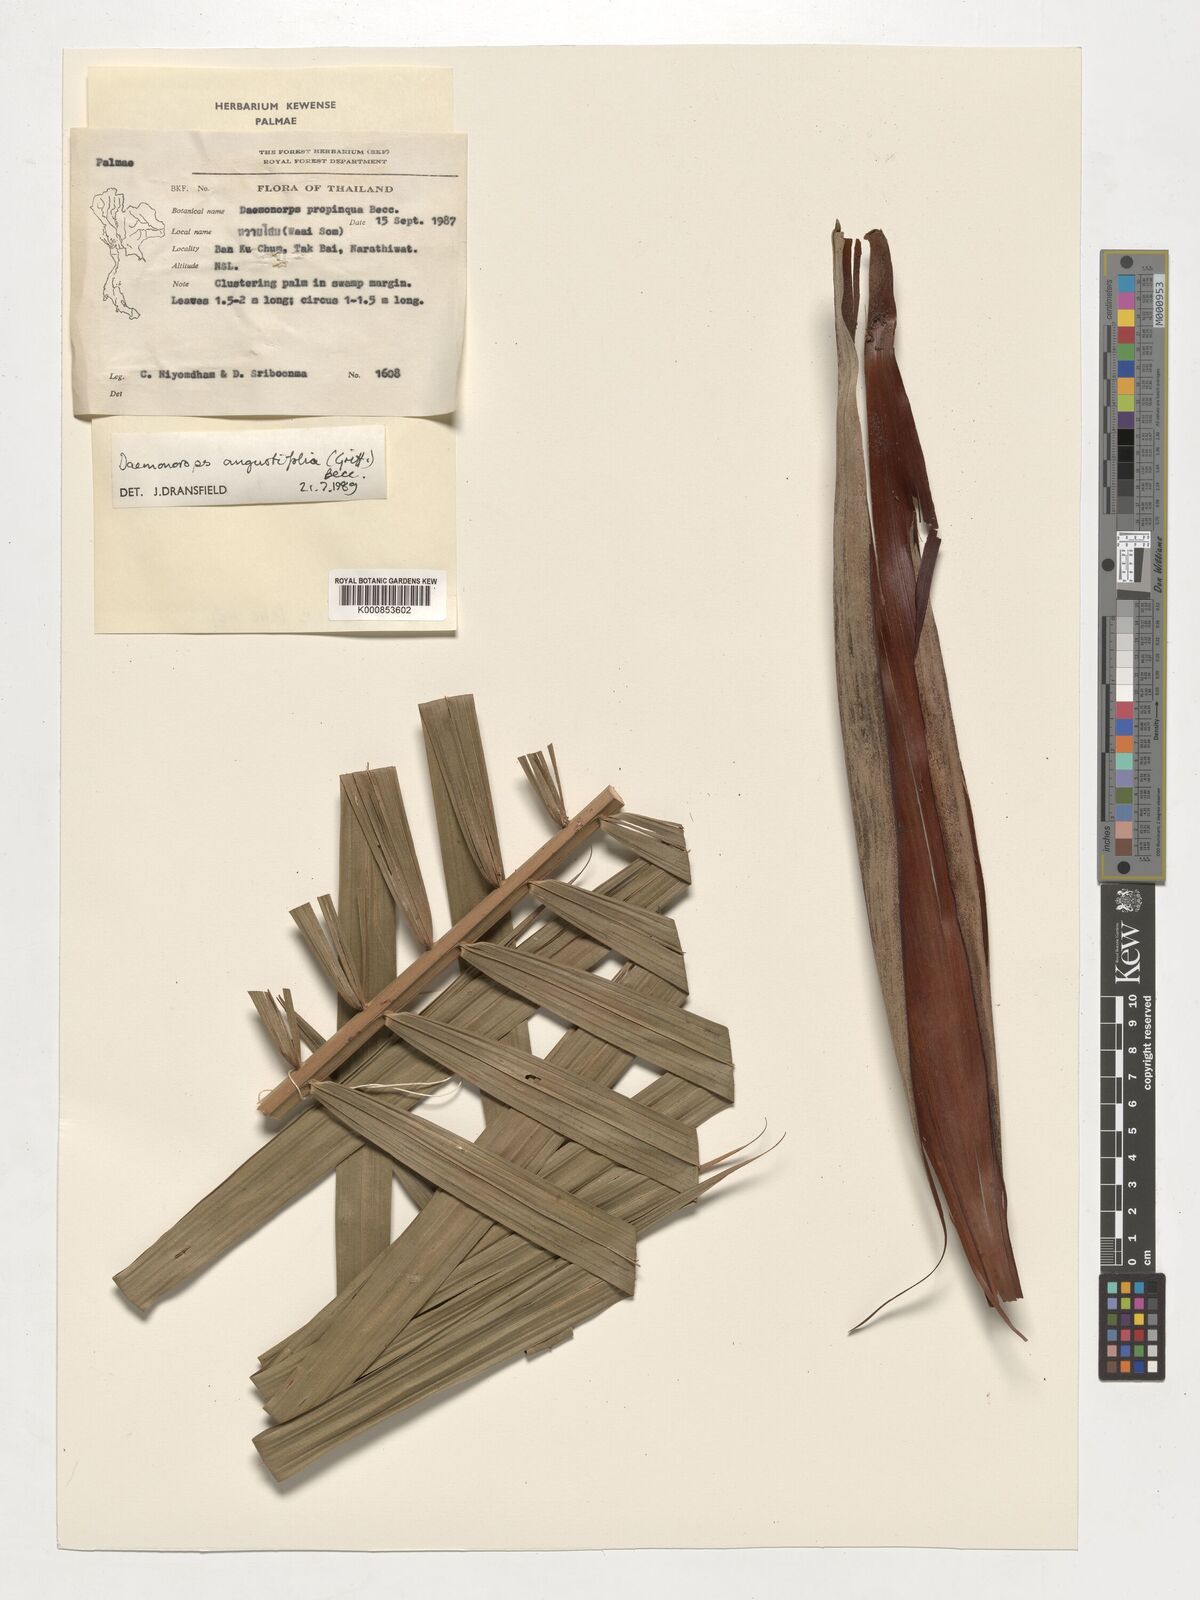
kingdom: Plantae
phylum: Tracheophyta
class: Liliopsida
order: Arecales
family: Arecaceae
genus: Calamus
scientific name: Calamus melanochaetes
